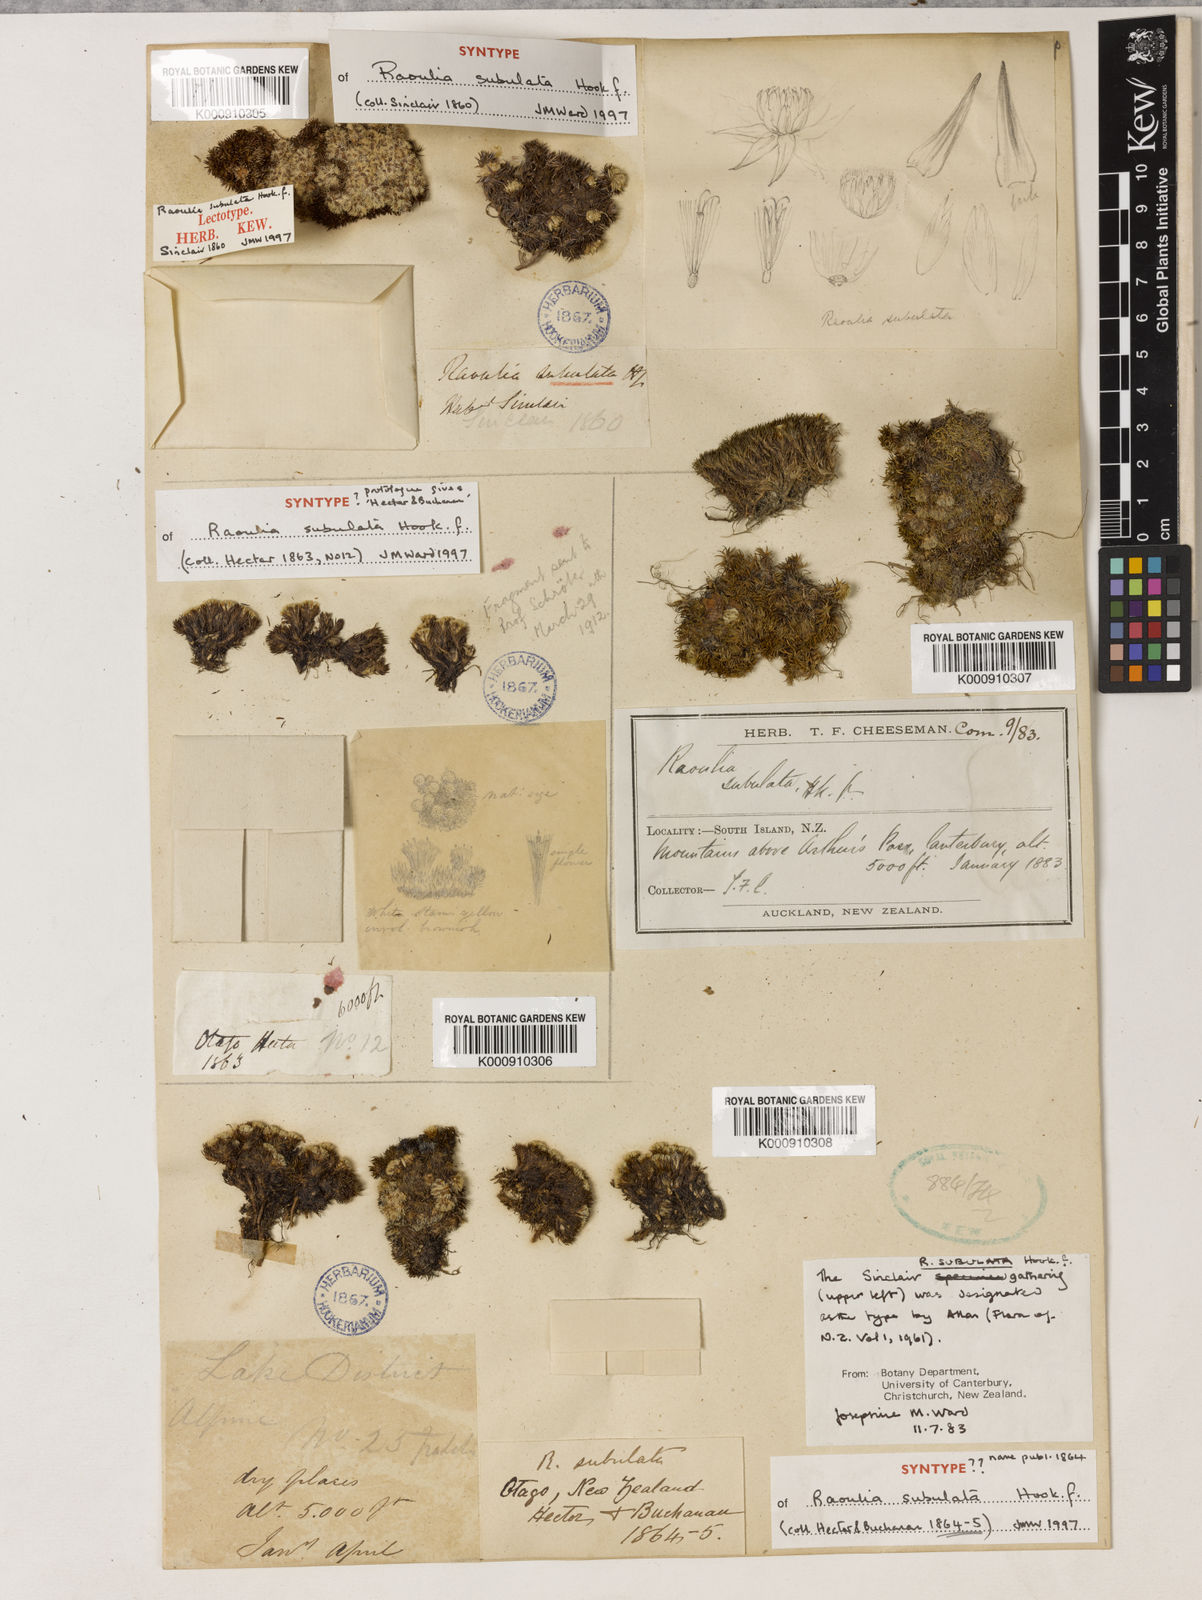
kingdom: Plantae
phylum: Tracheophyta
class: Magnoliopsida
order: Asterales
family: Asteraceae
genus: Raoulia
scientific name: Raoulia subulata
